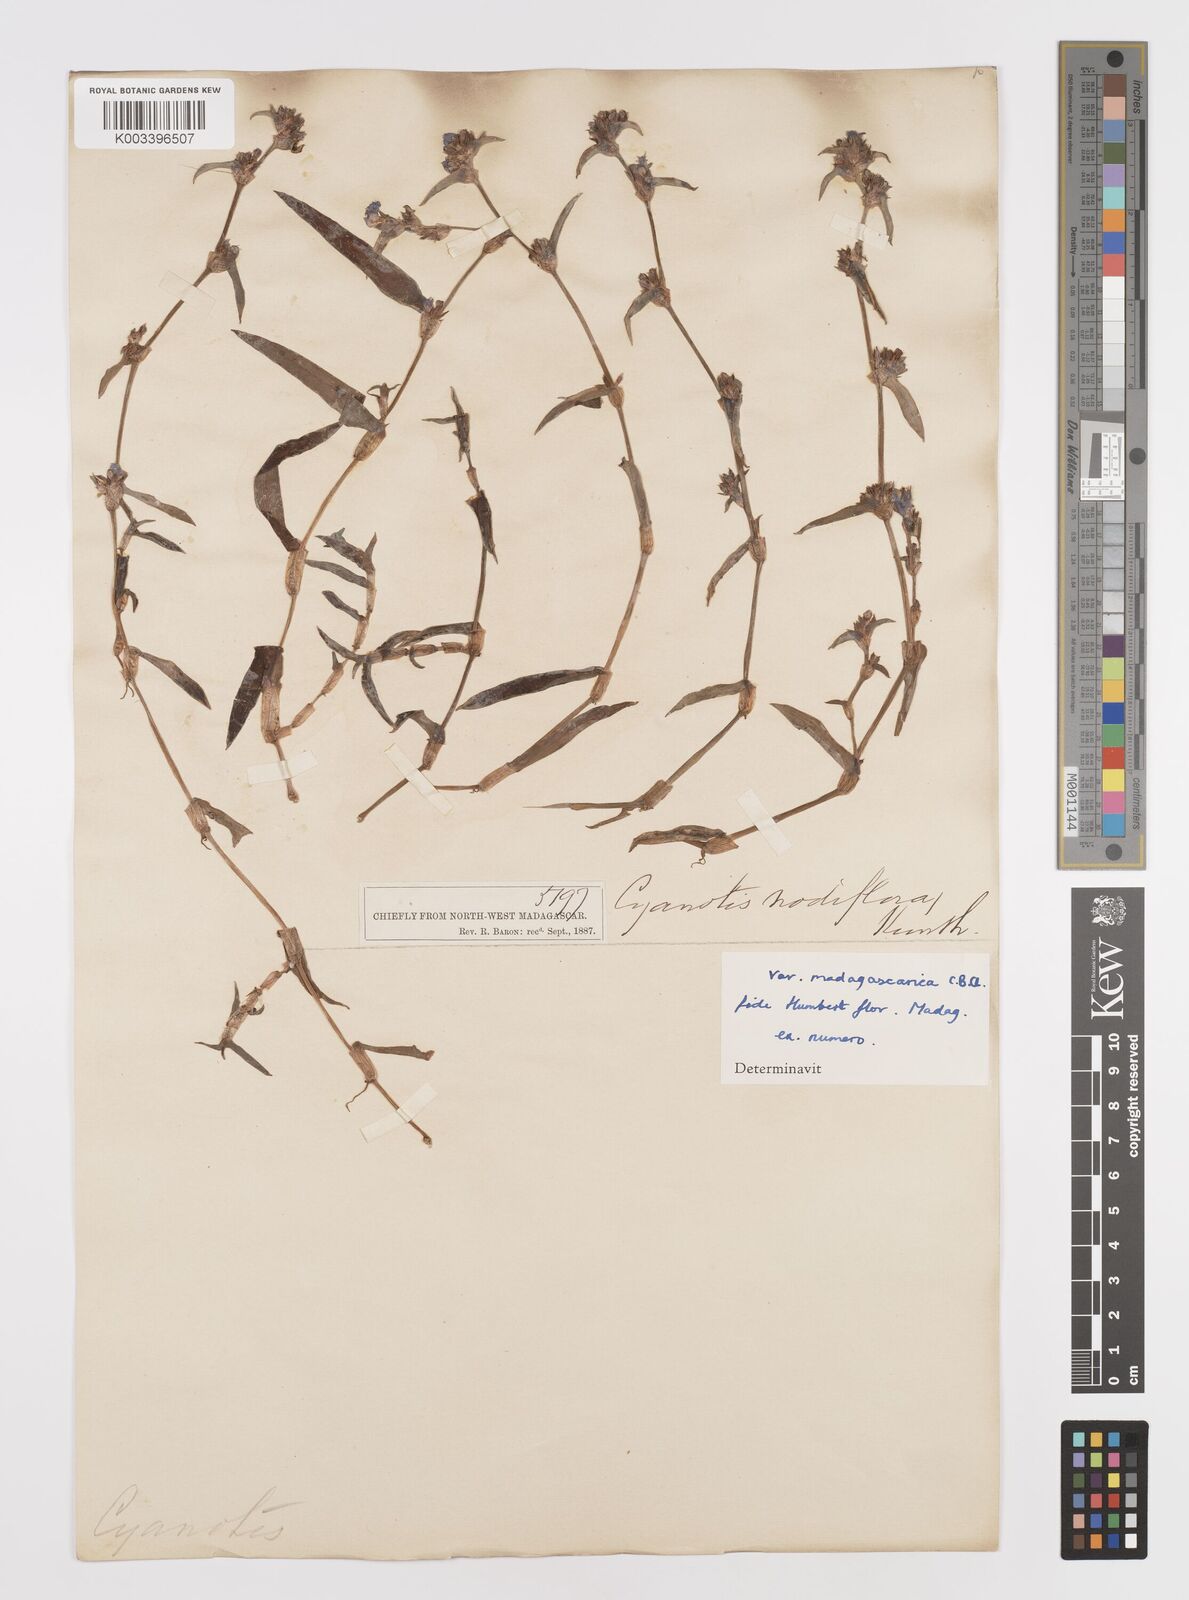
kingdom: Plantae
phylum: Tracheophyta
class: Liliopsida
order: Commelinales
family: Commelinaceae
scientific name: Commelinaceae
